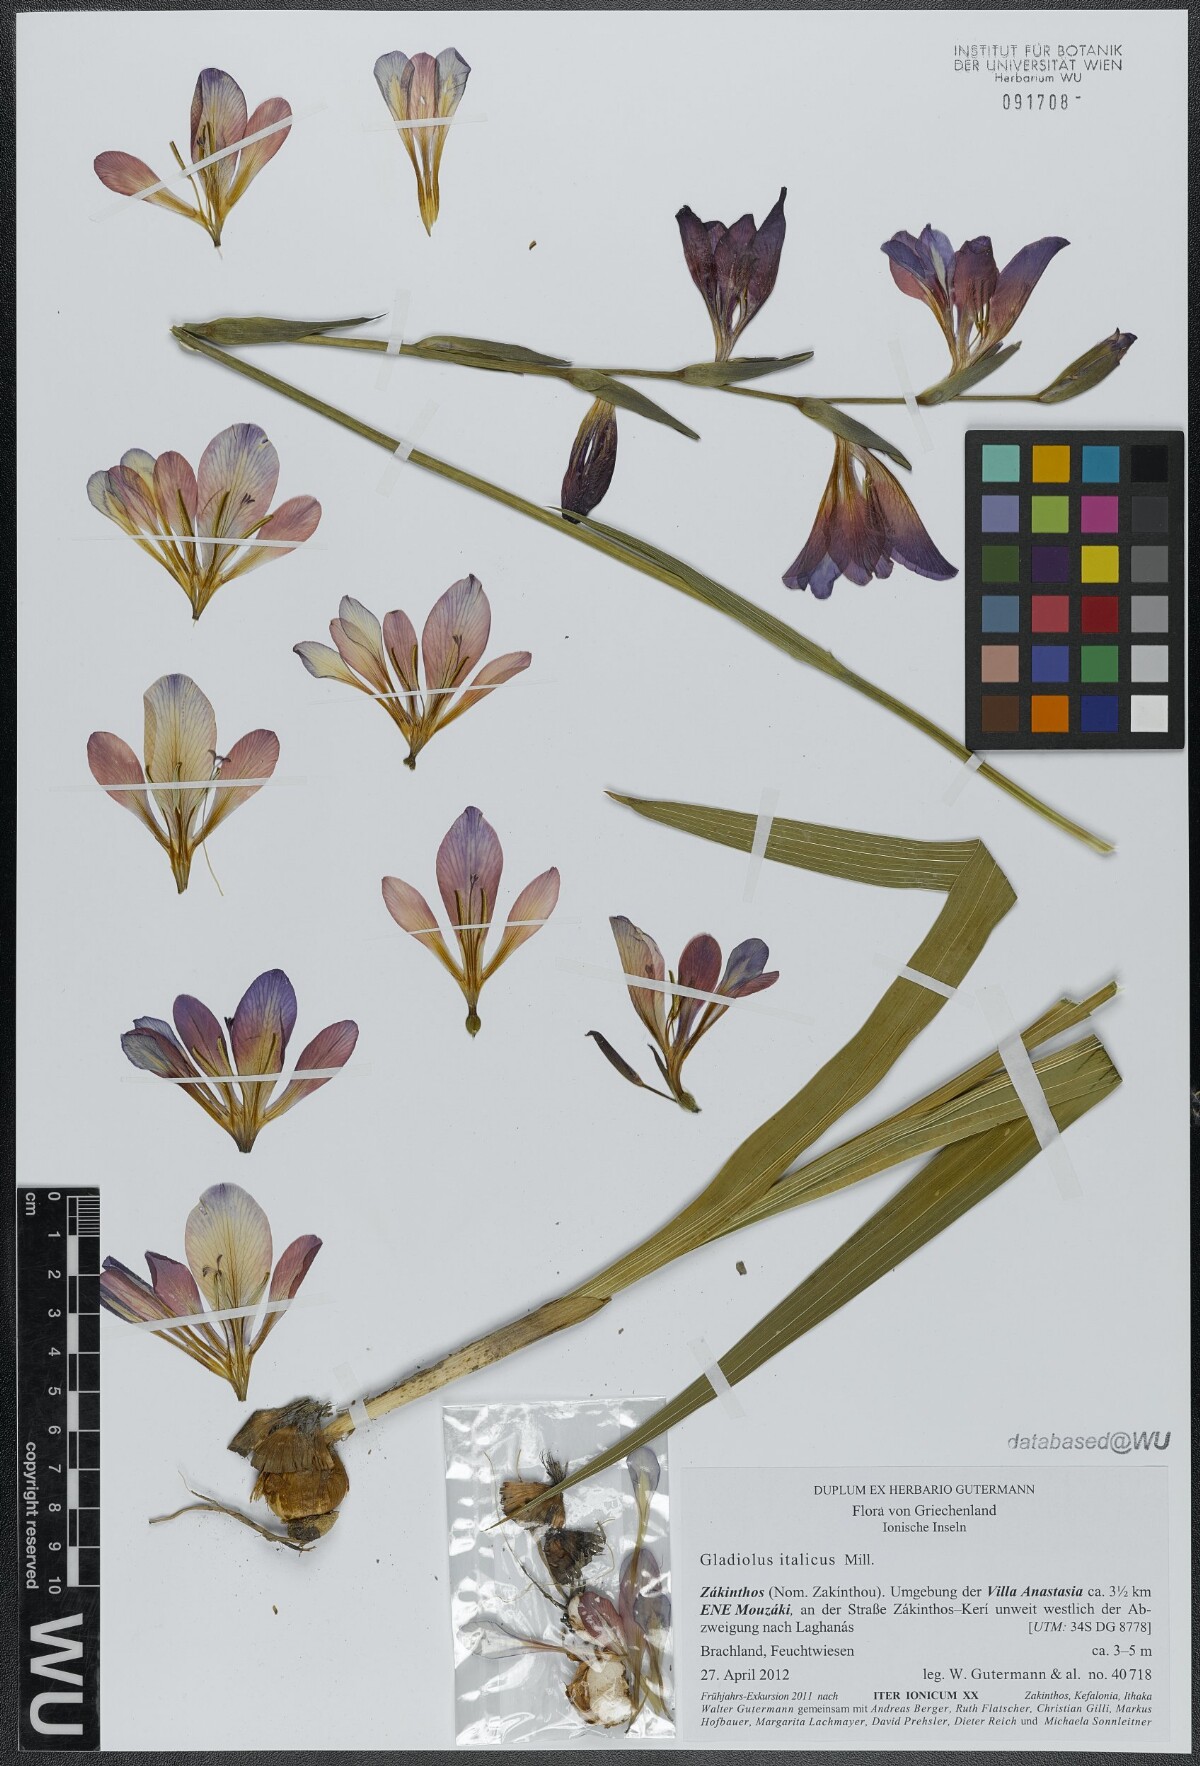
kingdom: Plantae
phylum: Tracheophyta
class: Liliopsida
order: Asparagales
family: Iridaceae
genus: Gladiolus
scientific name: Gladiolus italicus
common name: Field gladiolus
